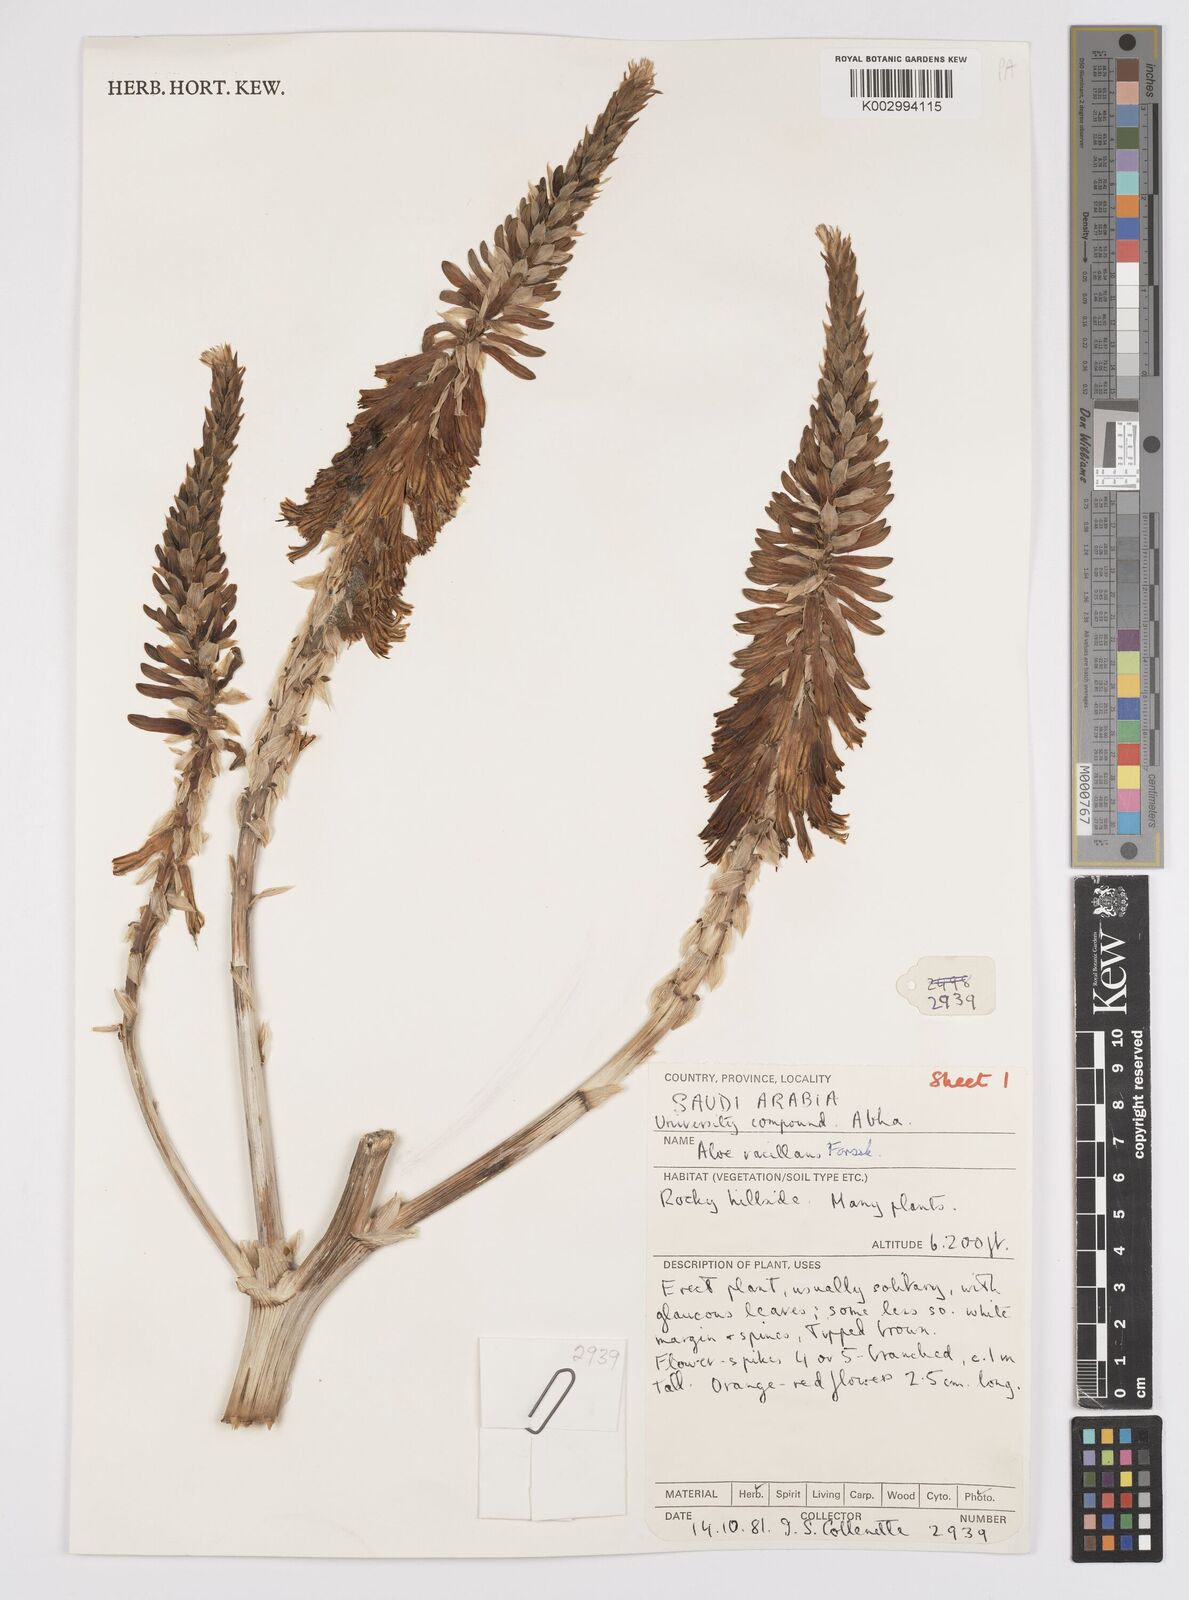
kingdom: Plantae
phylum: Tracheophyta
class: Liliopsida
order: Asparagales
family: Asphodelaceae
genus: Aloe
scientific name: Aloe vacillans
